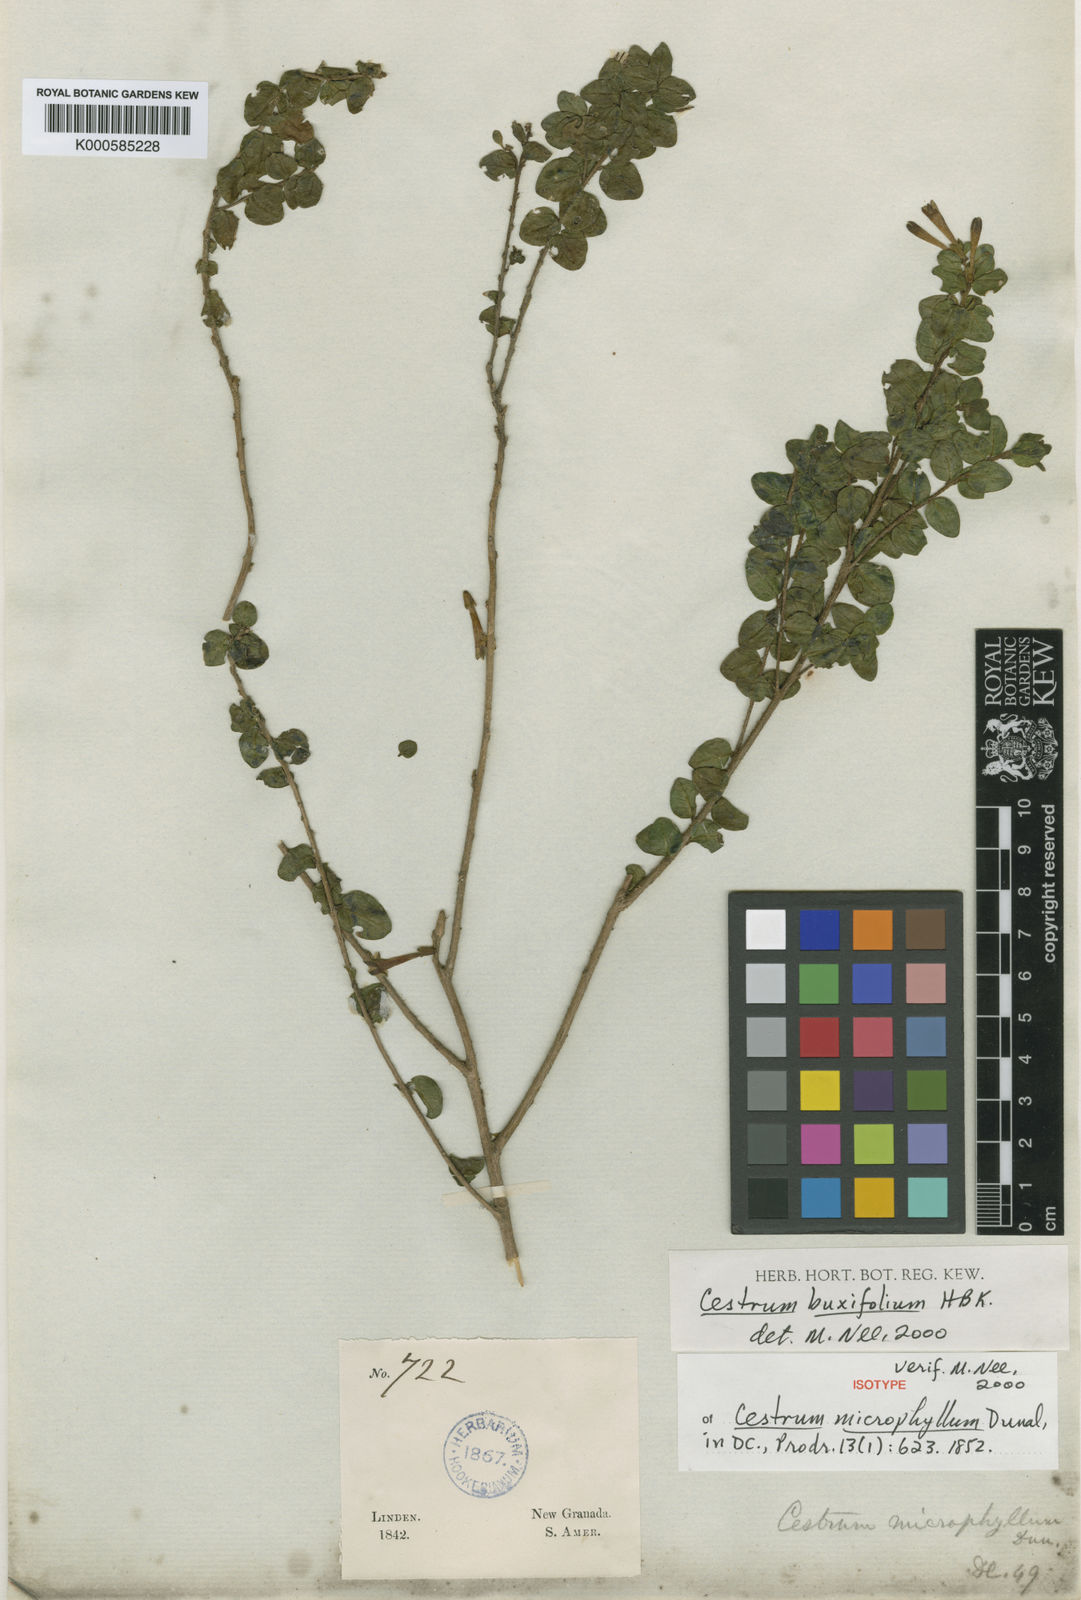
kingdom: Plantae
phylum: Tracheophyta
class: Magnoliopsida
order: Solanales
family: Solanaceae
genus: Cestrum
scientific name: Cestrum buxifolium
